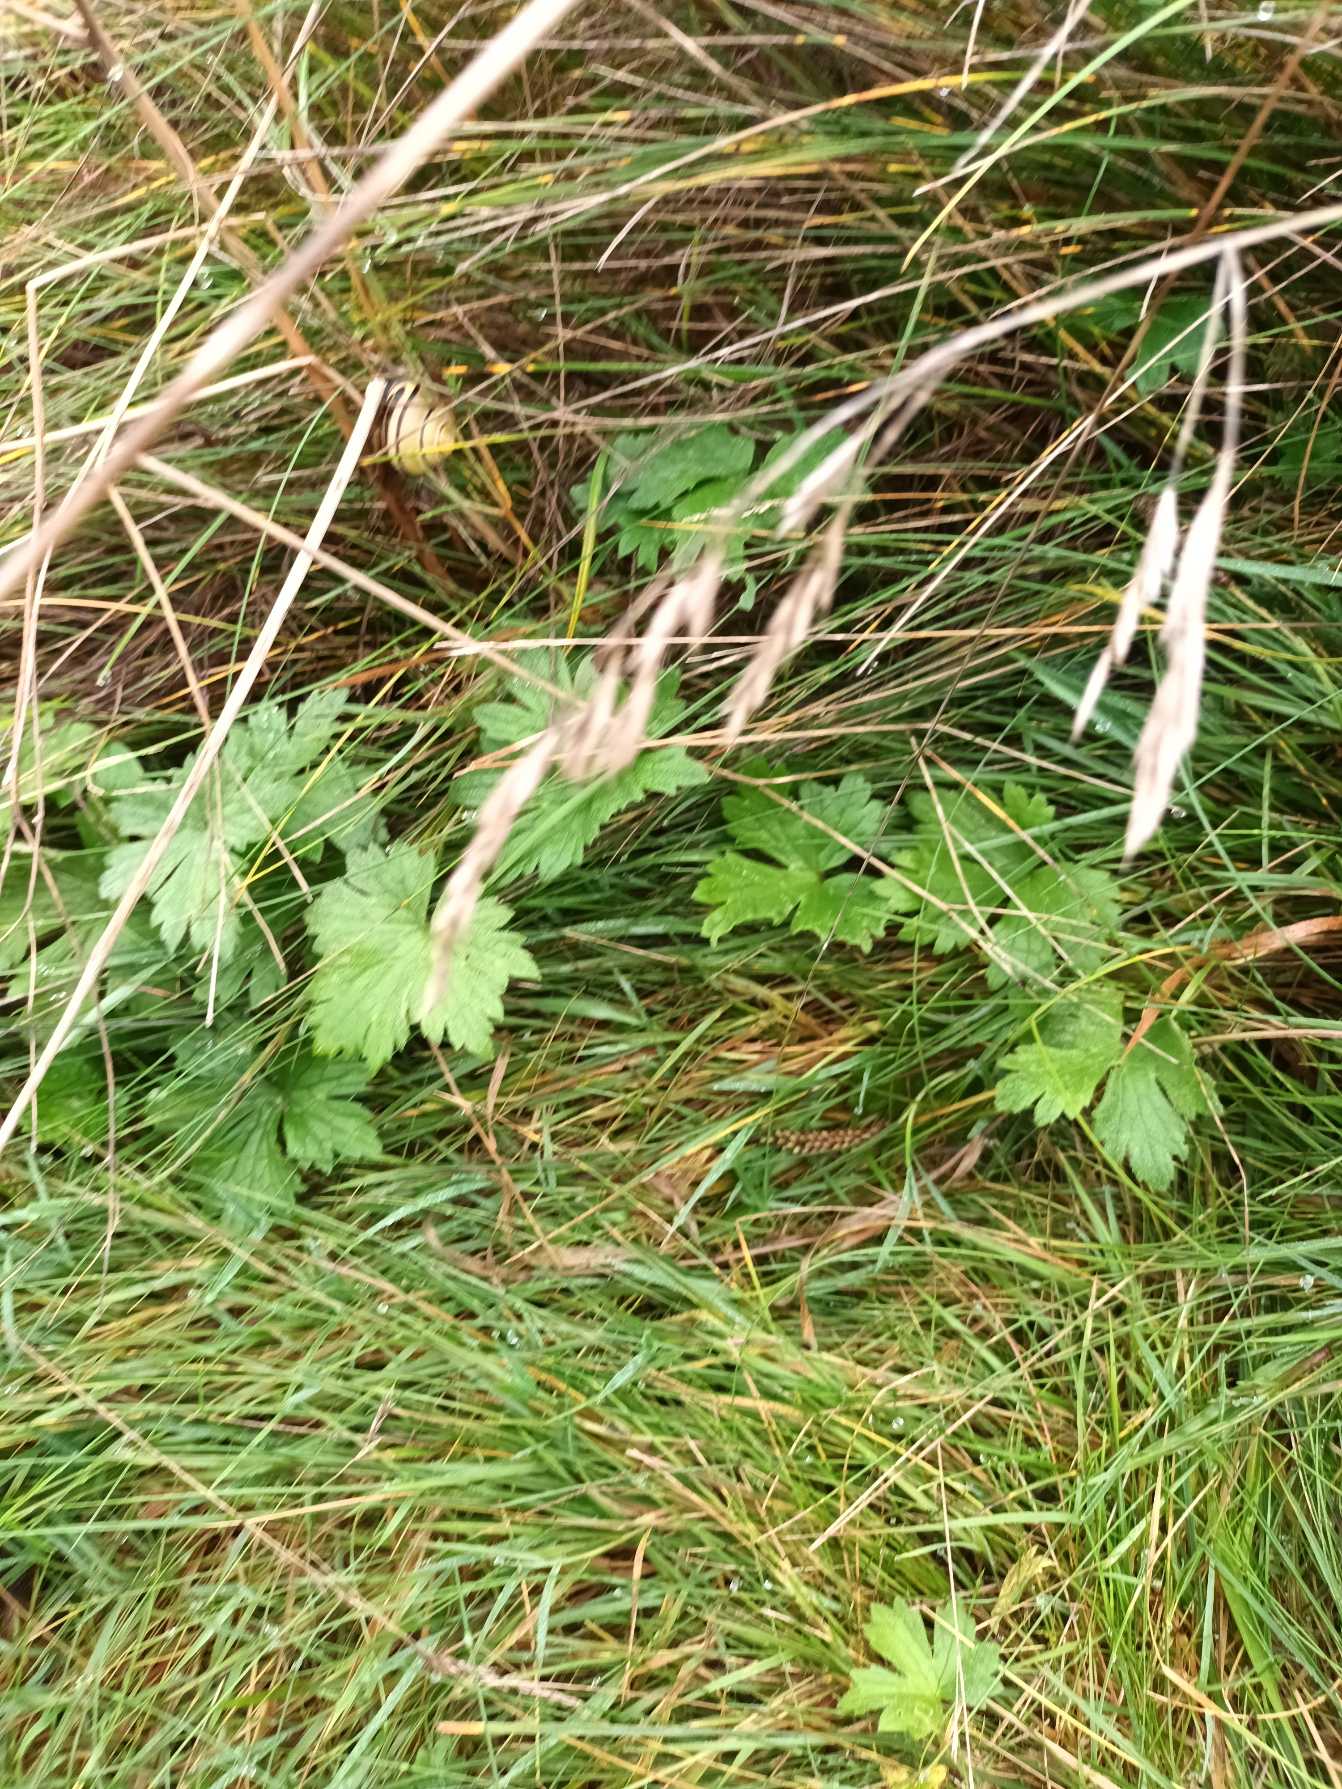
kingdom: Plantae
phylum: Tracheophyta
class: Magnoliopsida
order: Ranunculales
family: Ranunculaceae
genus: Ranunculus
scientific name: Ranunculus acris
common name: Bidende ranunkel
